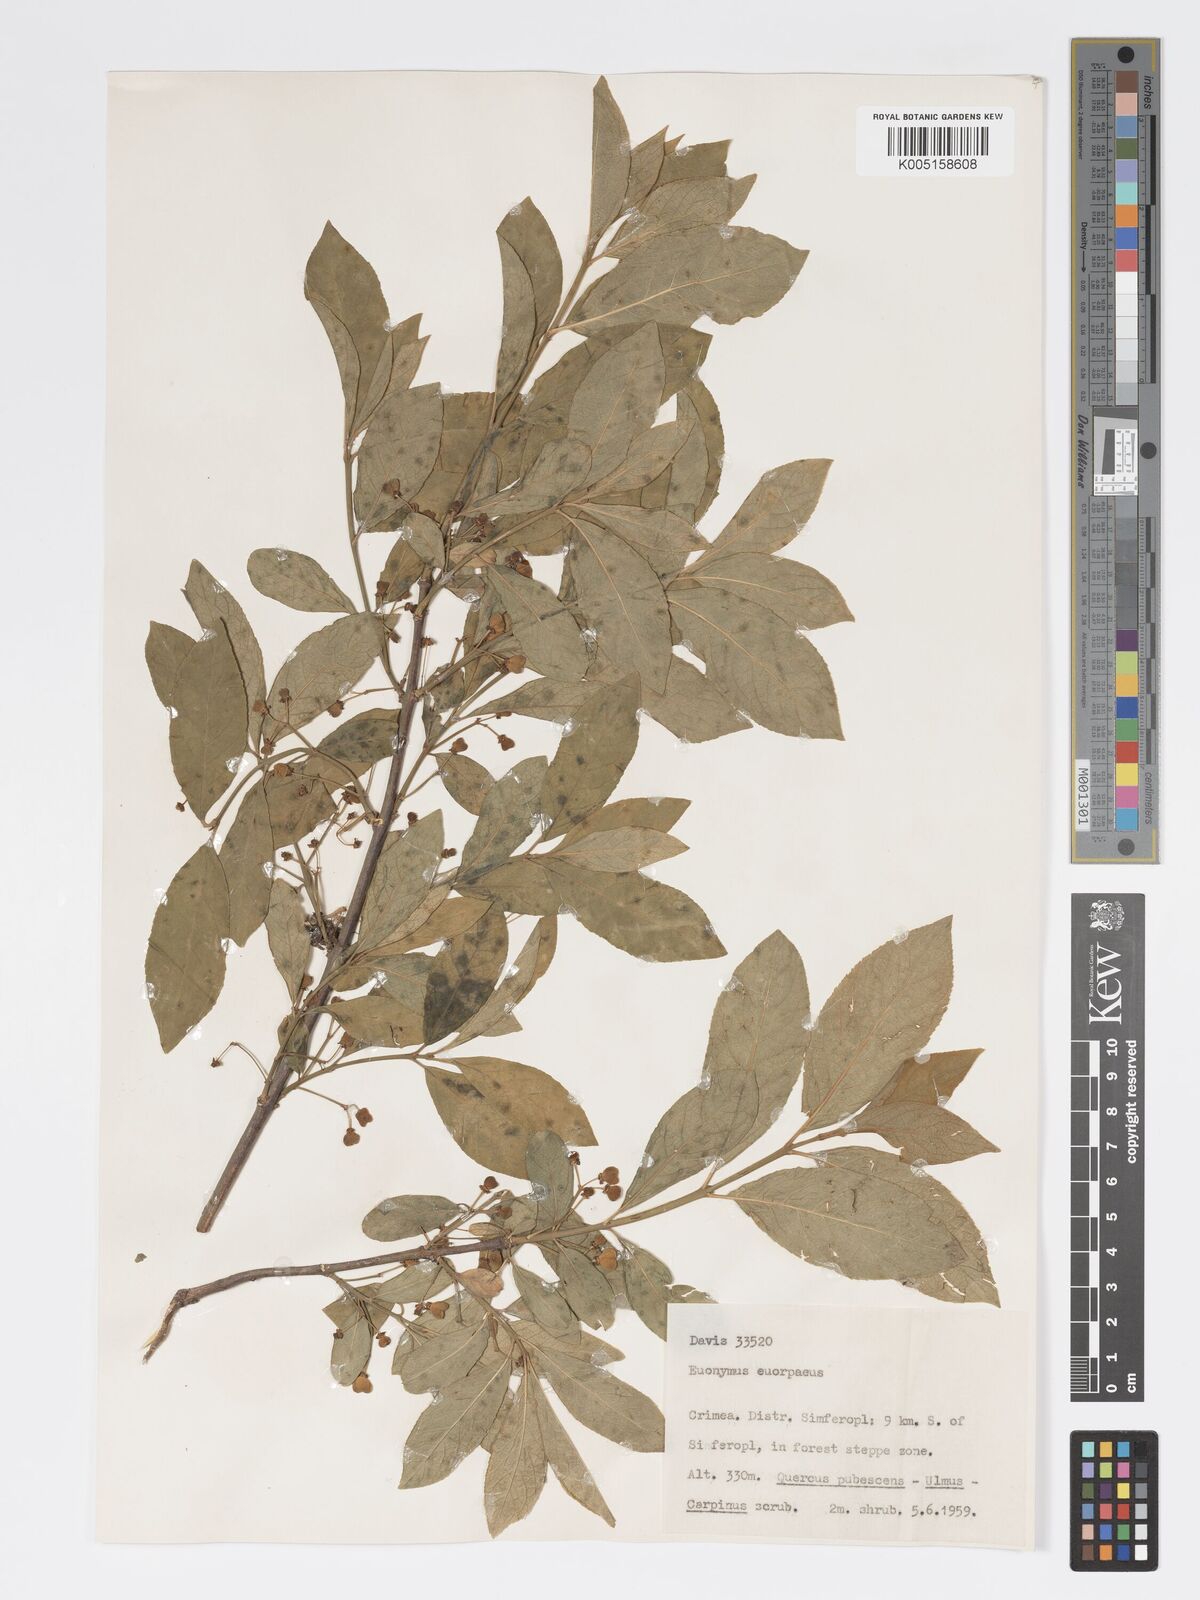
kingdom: Plantae
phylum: Tracheophyta
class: Magnoliopsida
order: Celastrales
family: Celastraceae
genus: Euonymus
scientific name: Euonymus europaeus
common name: Spindle
